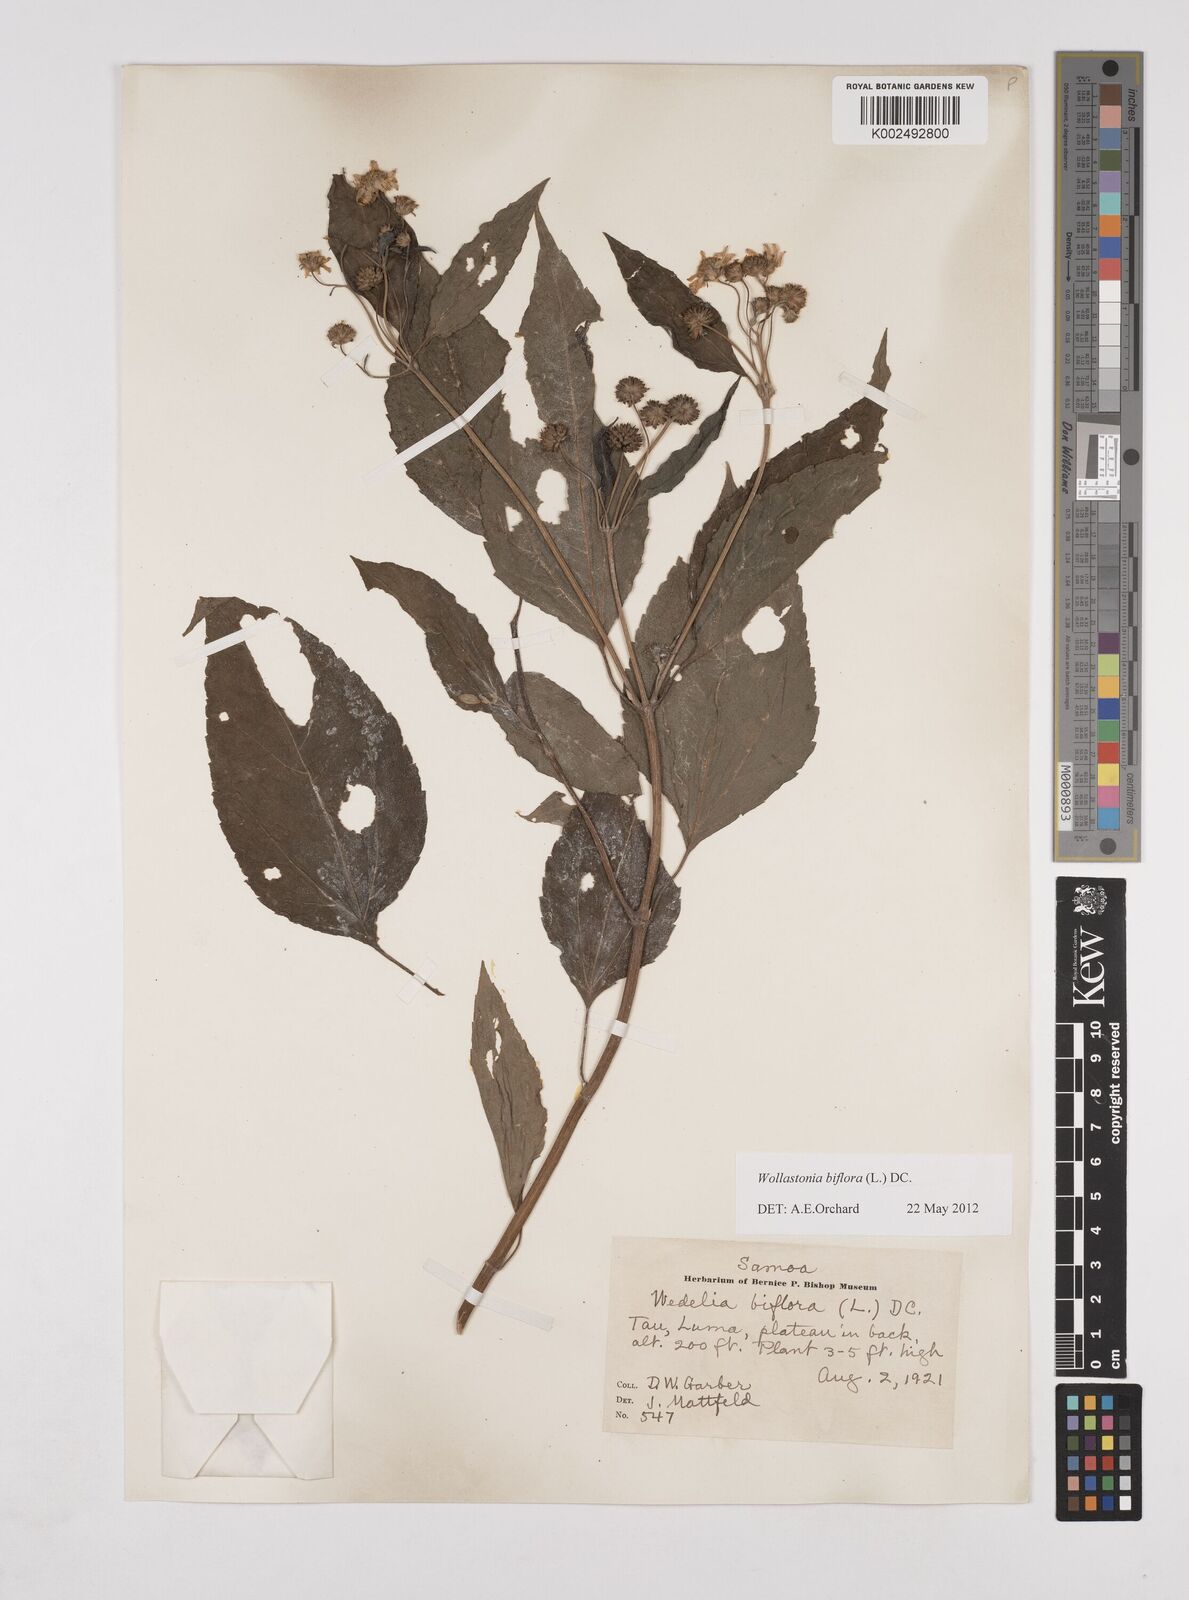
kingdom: Plantae
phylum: Tracheophyta
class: Magnoliopsida
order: Asterales
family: Asteraceae
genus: Wollastonia
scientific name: Wollastonia biflora
